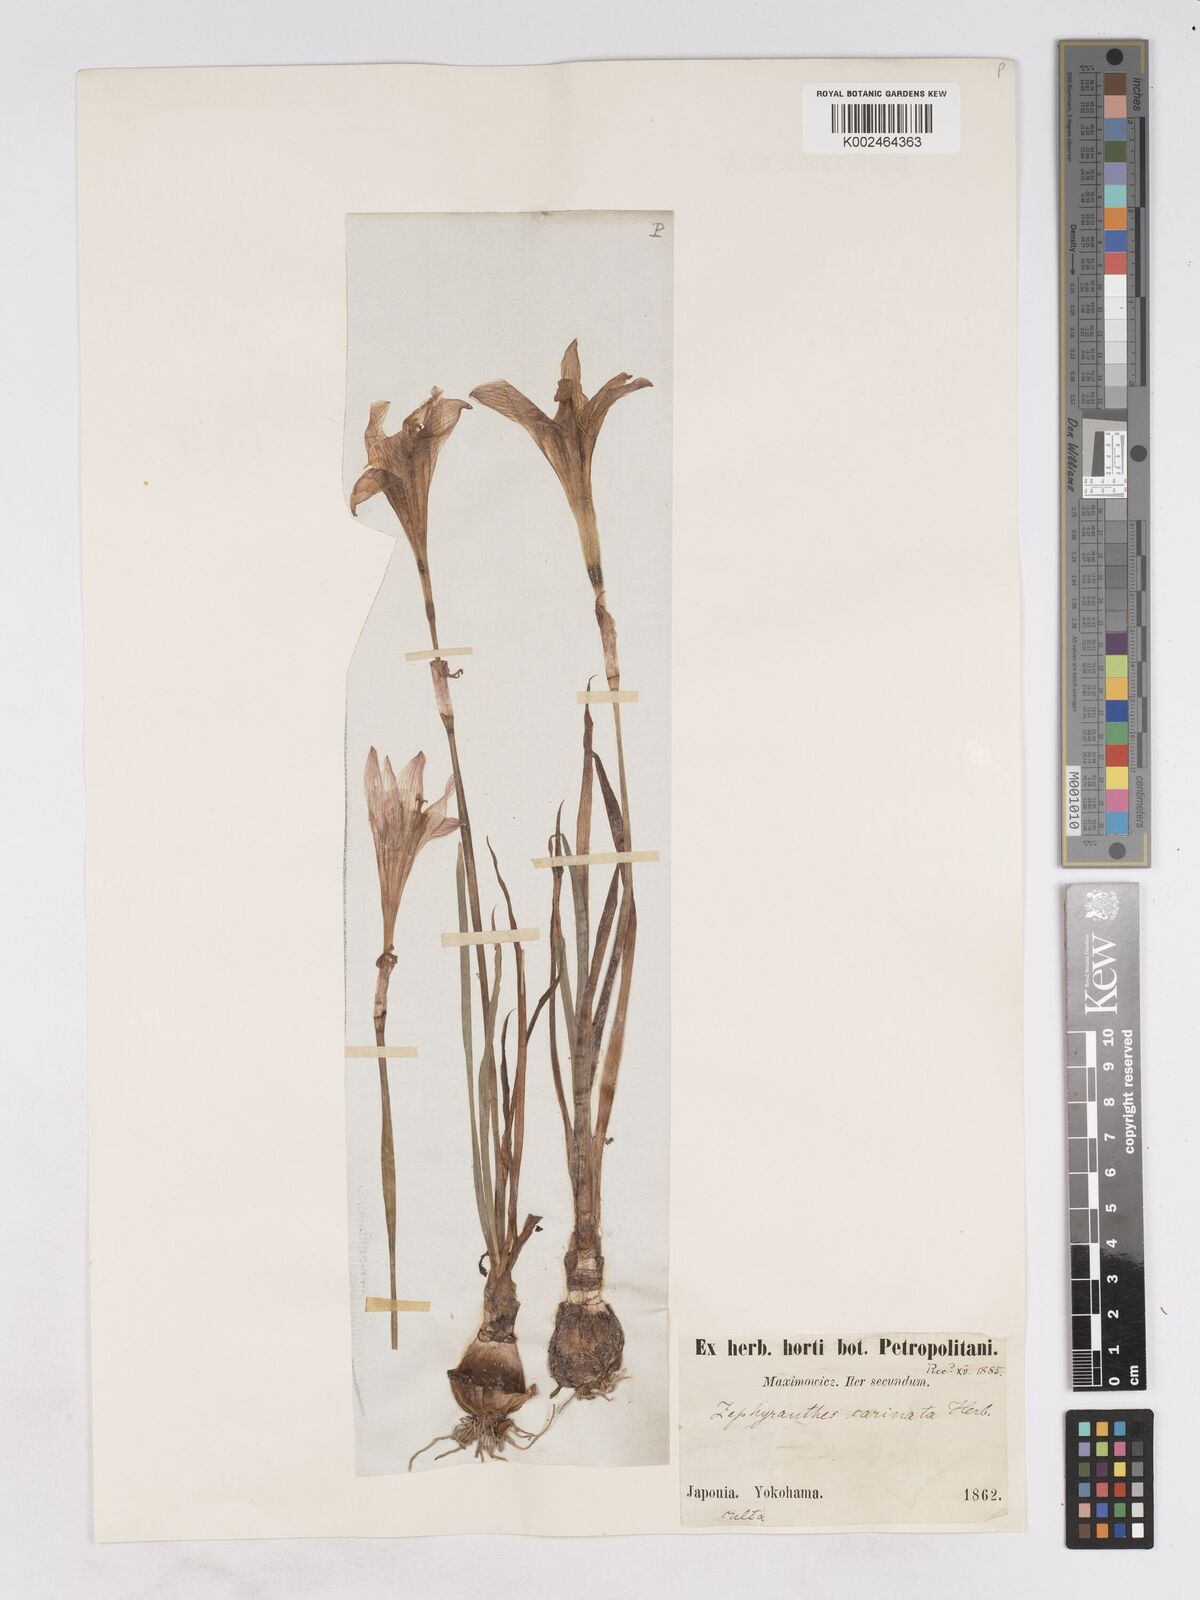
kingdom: Plantae
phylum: Tracheophyta
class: Liliopsida
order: Asparagales
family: Amaryllidaceae
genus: Zephyranthes
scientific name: Zephyranthes minuta
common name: Pink rain lily
